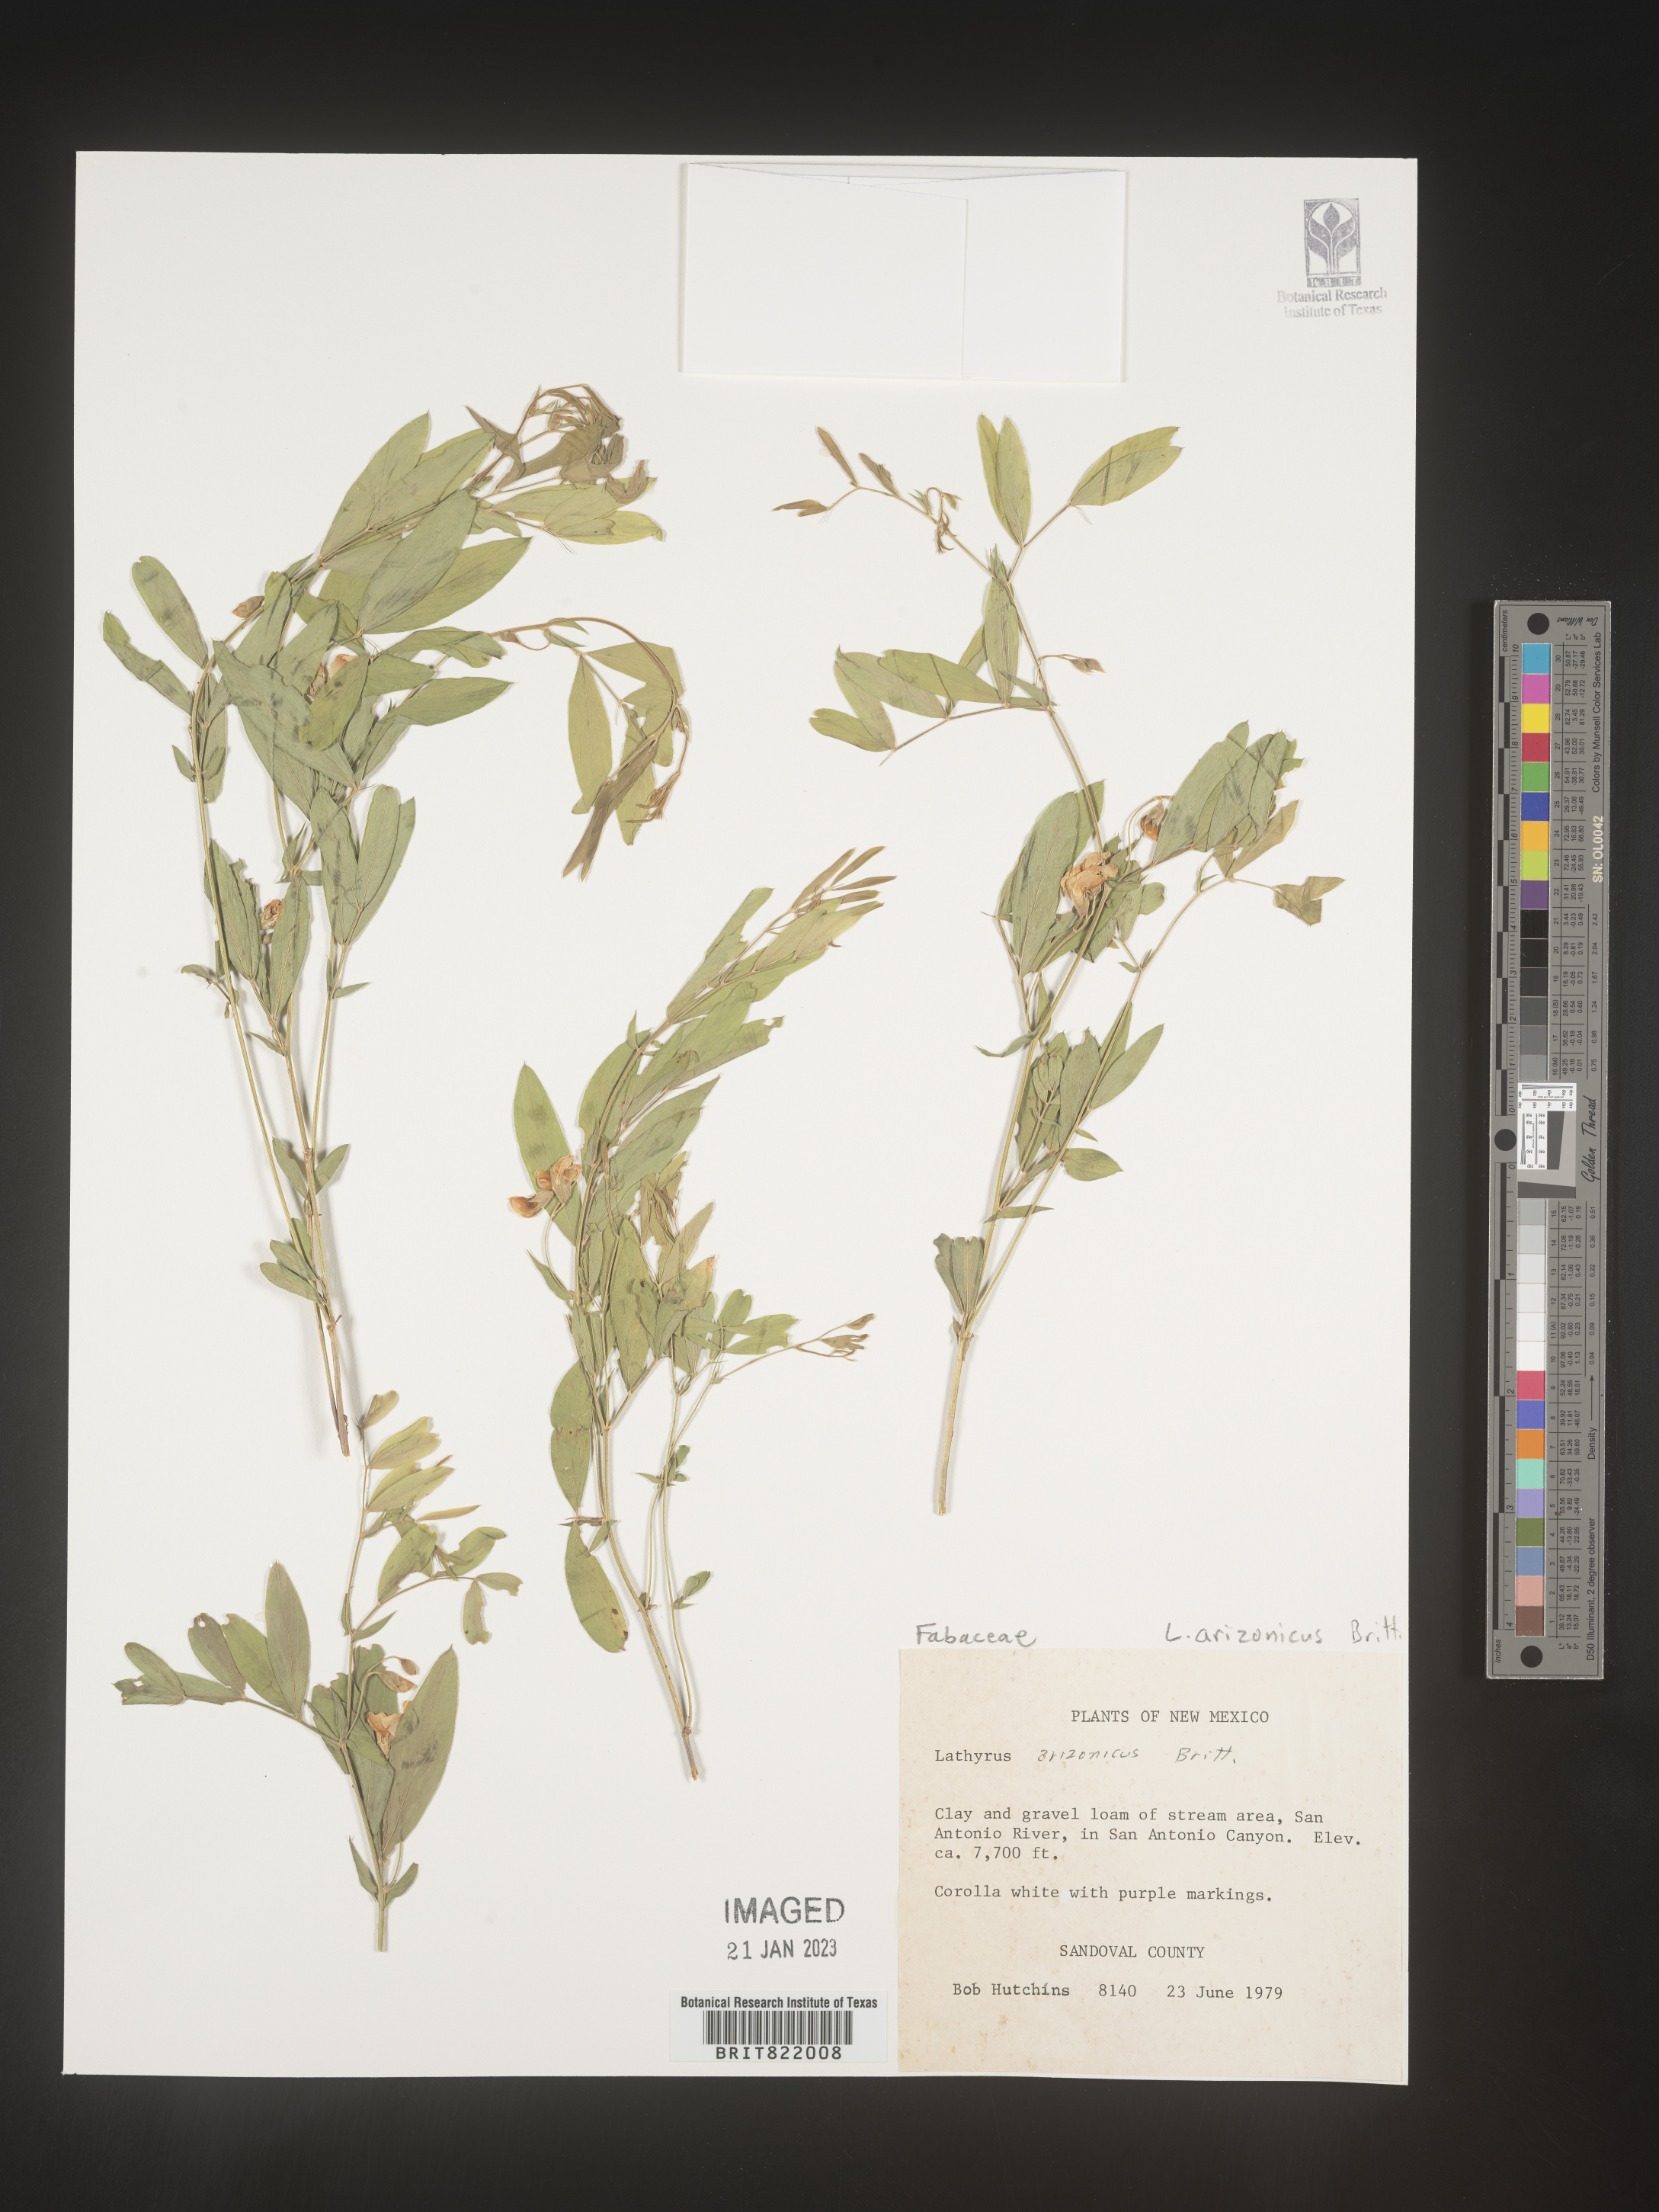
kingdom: Plantae
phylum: Tracheophyta
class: Magnoliopsida
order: Fabales
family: Fabaceae
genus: Lathyrus
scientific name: Lathyrus
